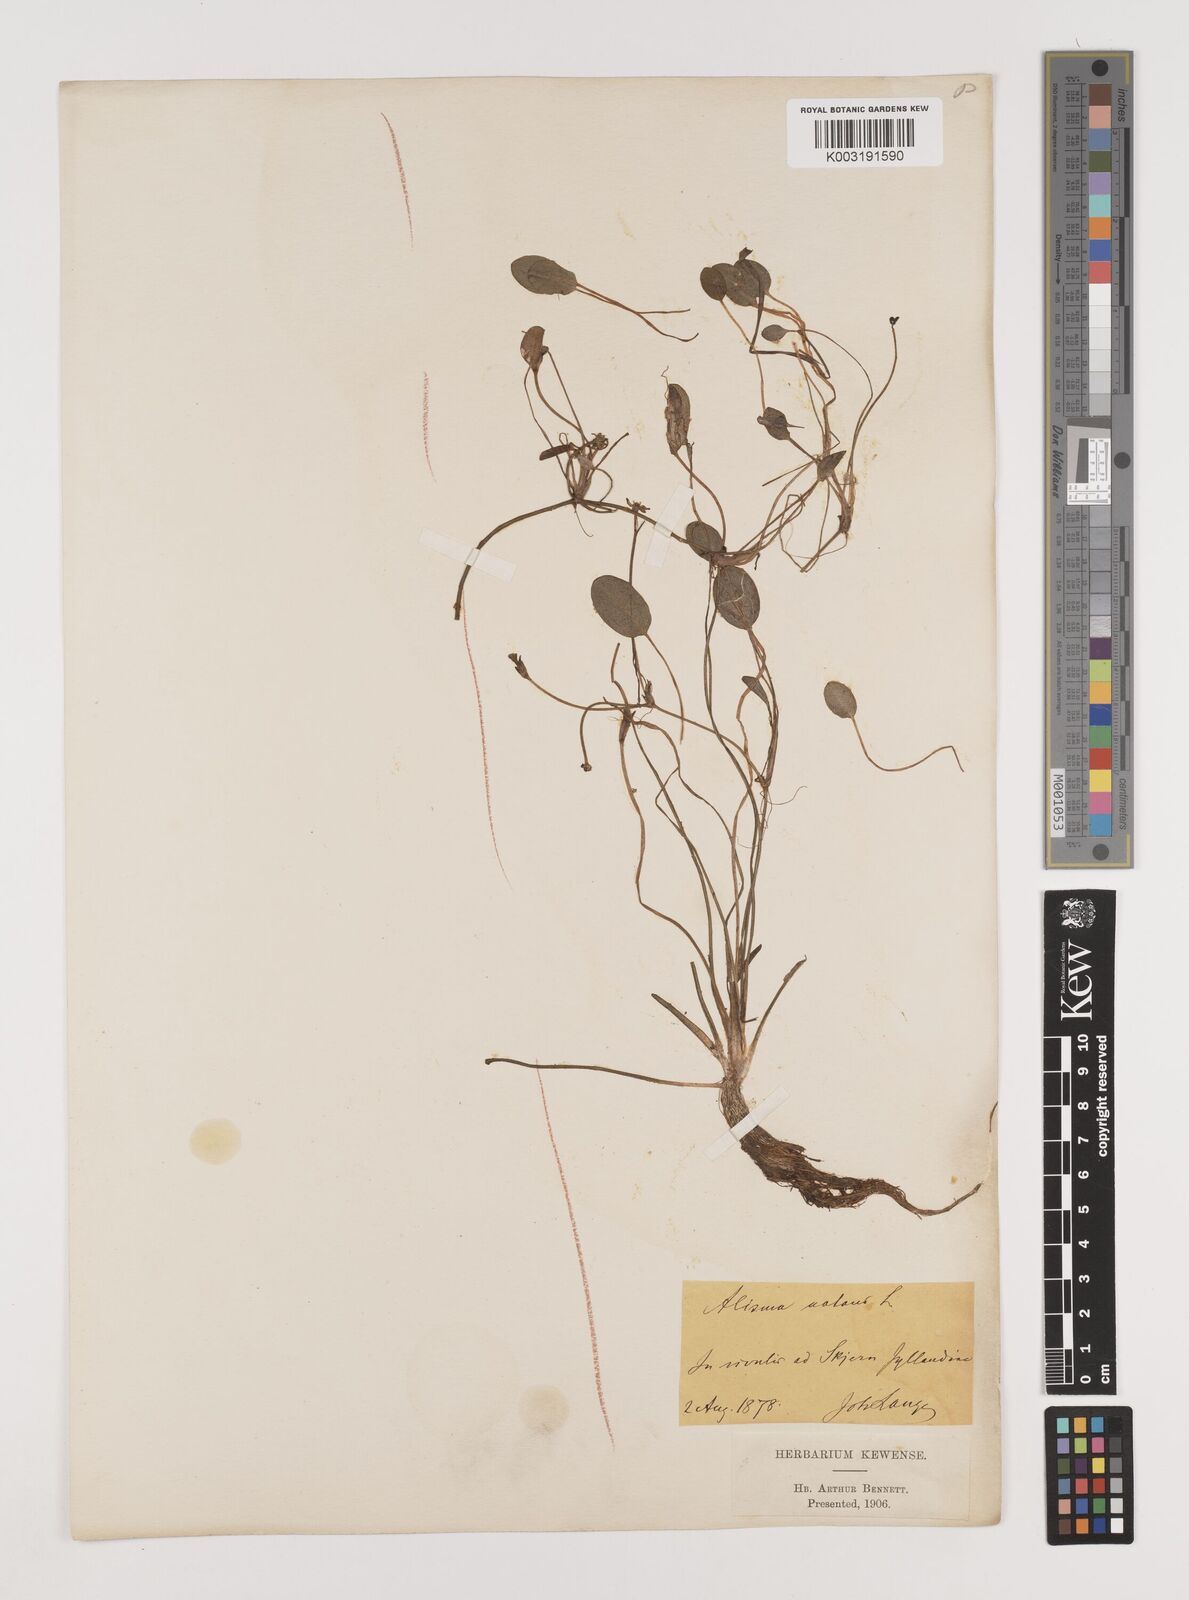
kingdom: Plantae
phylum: Tracheophyta
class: Liliopsida
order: Alismatales
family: Alismataceae
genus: Luronium
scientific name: Luronium natans
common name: Floating water-plantain
